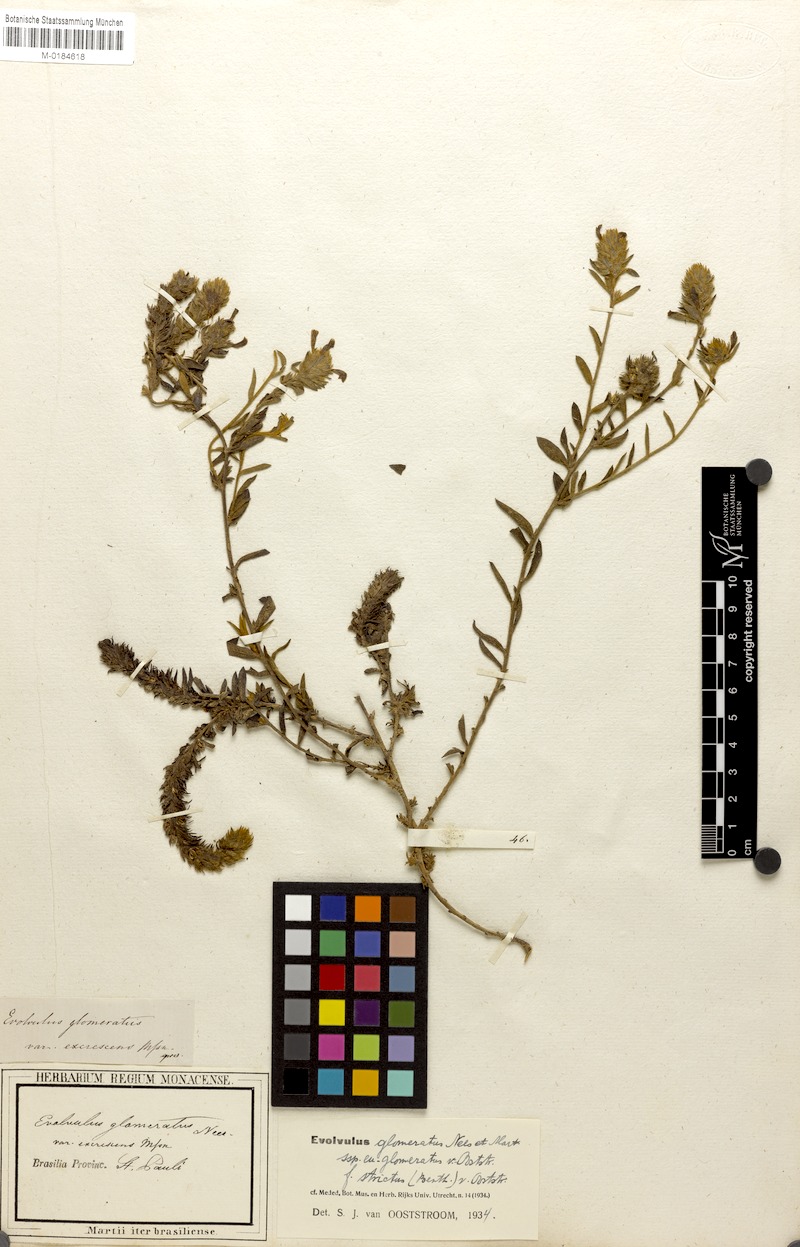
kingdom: Plantae
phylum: Tracheophyta
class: Magnoliopsida
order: Solanales
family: Convolvulaceae
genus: Evolvulus
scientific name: Evolvulus glomeratus
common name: Brazilian dwarf morning-glory
